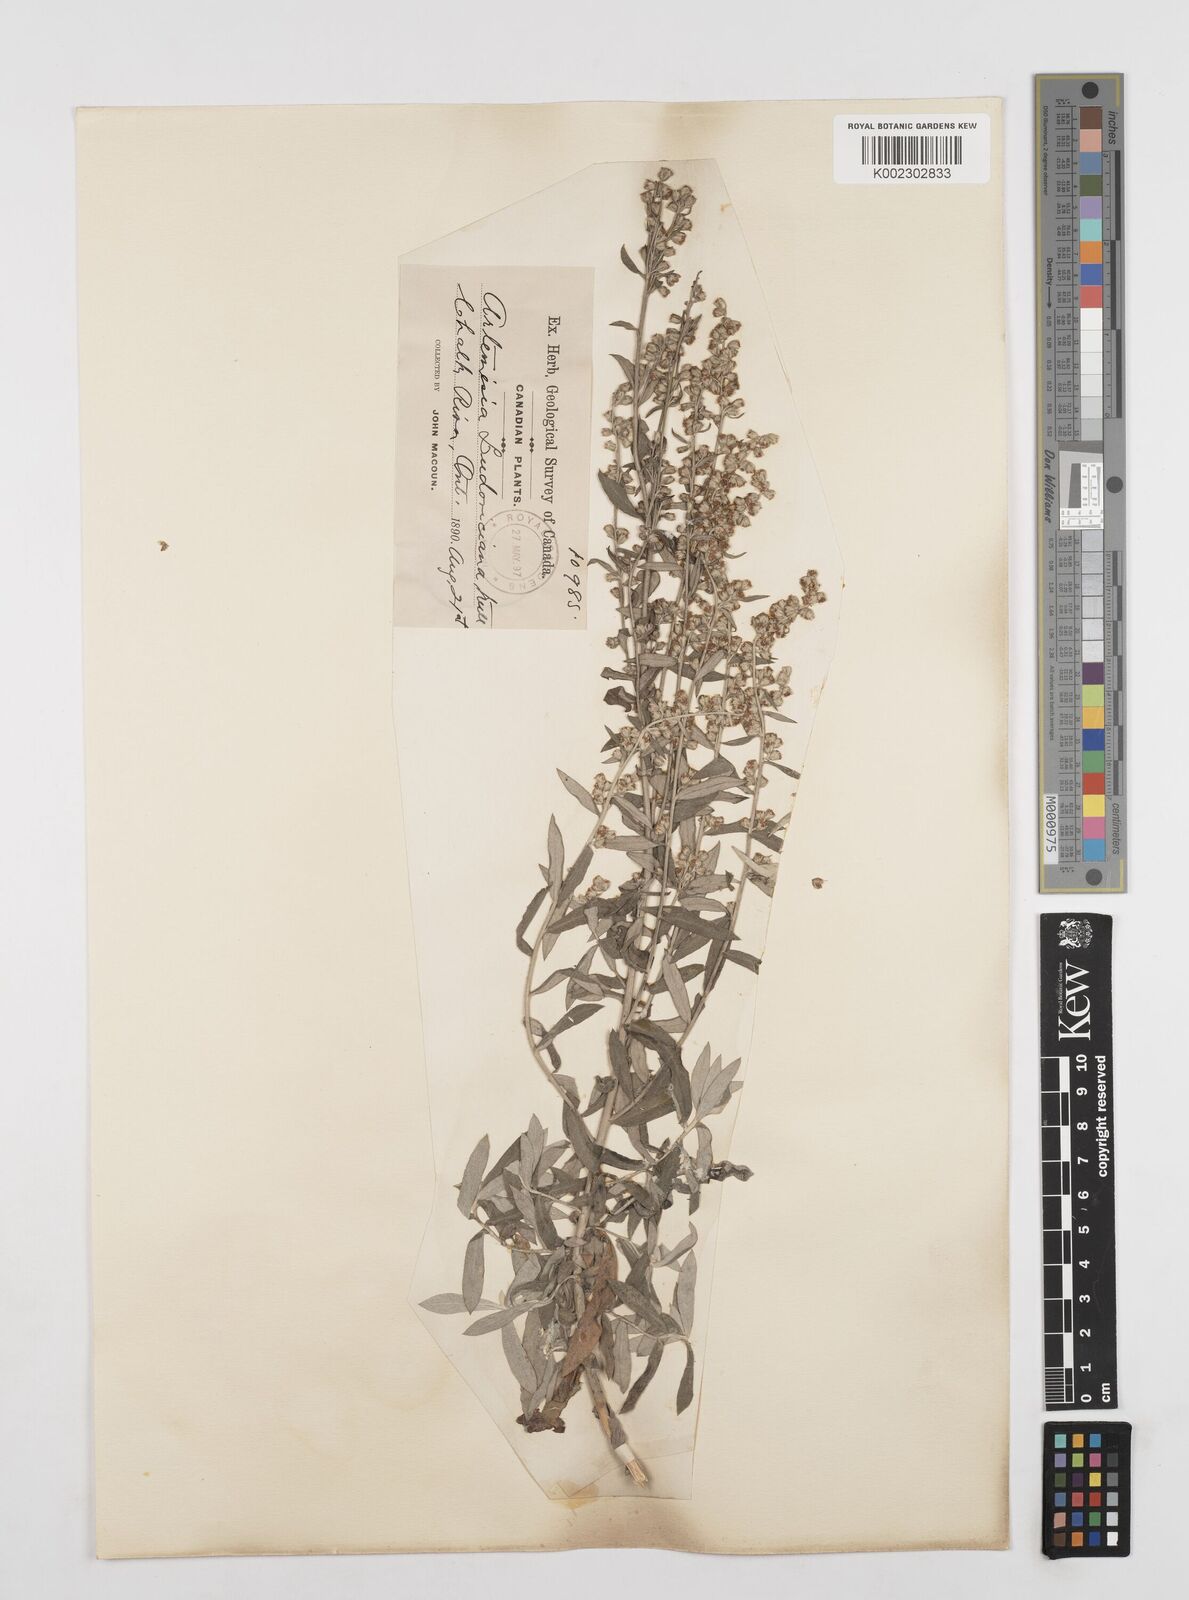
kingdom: Plantae
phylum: Tracheophyta
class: Magnoliopsida
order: Asterales
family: Asteraceae
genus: Artemisia
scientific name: Artemisia ludoviciana
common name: Western mugwort
